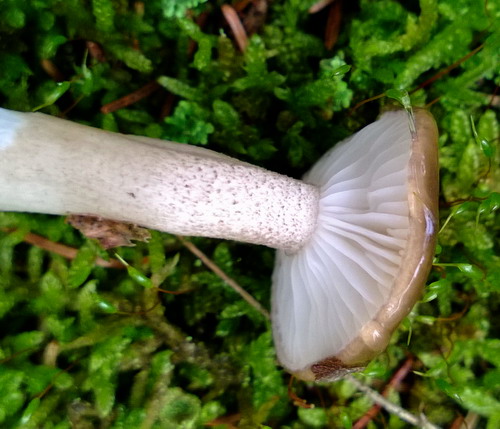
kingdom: Fungi
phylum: Basidiomycota
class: Agaricomycetes
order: Agaricales
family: Hygrophoraceae
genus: Hygrophorus
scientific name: Hygrophorus pustulatus
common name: mørkprikket sneglehat
